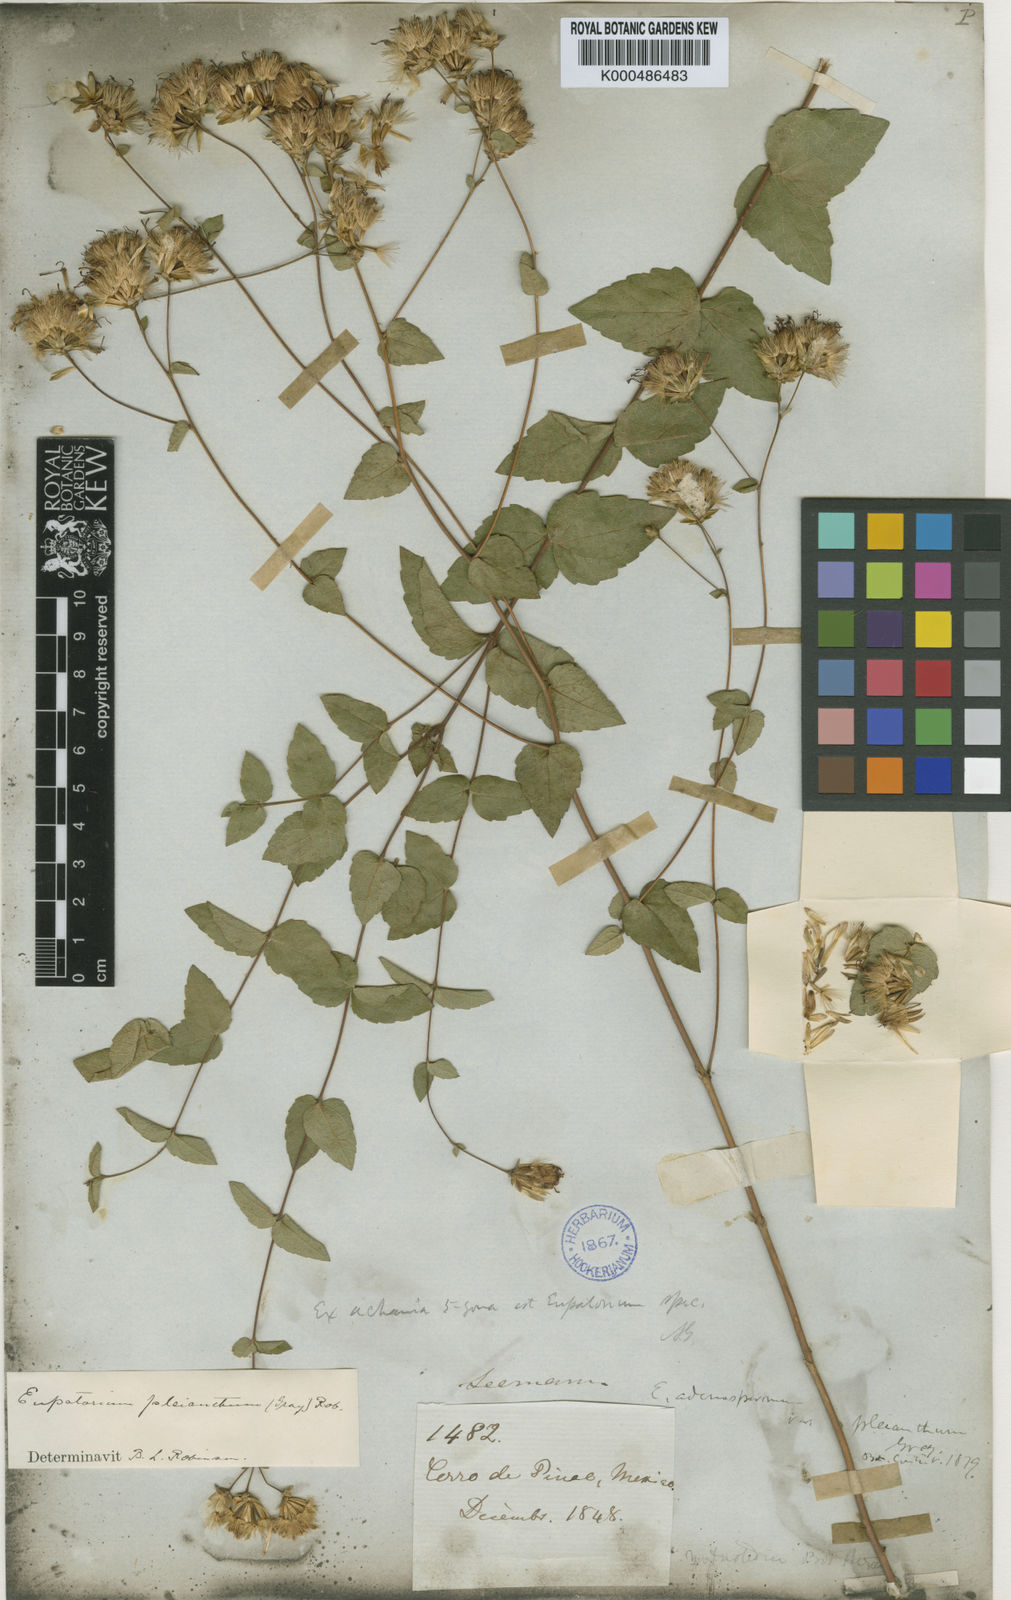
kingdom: Plantae
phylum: Tracheophyta
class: Magnoliopsida
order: Asterales
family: Asteraceae
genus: Steviopsis
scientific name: Steviopsis adenosperma
